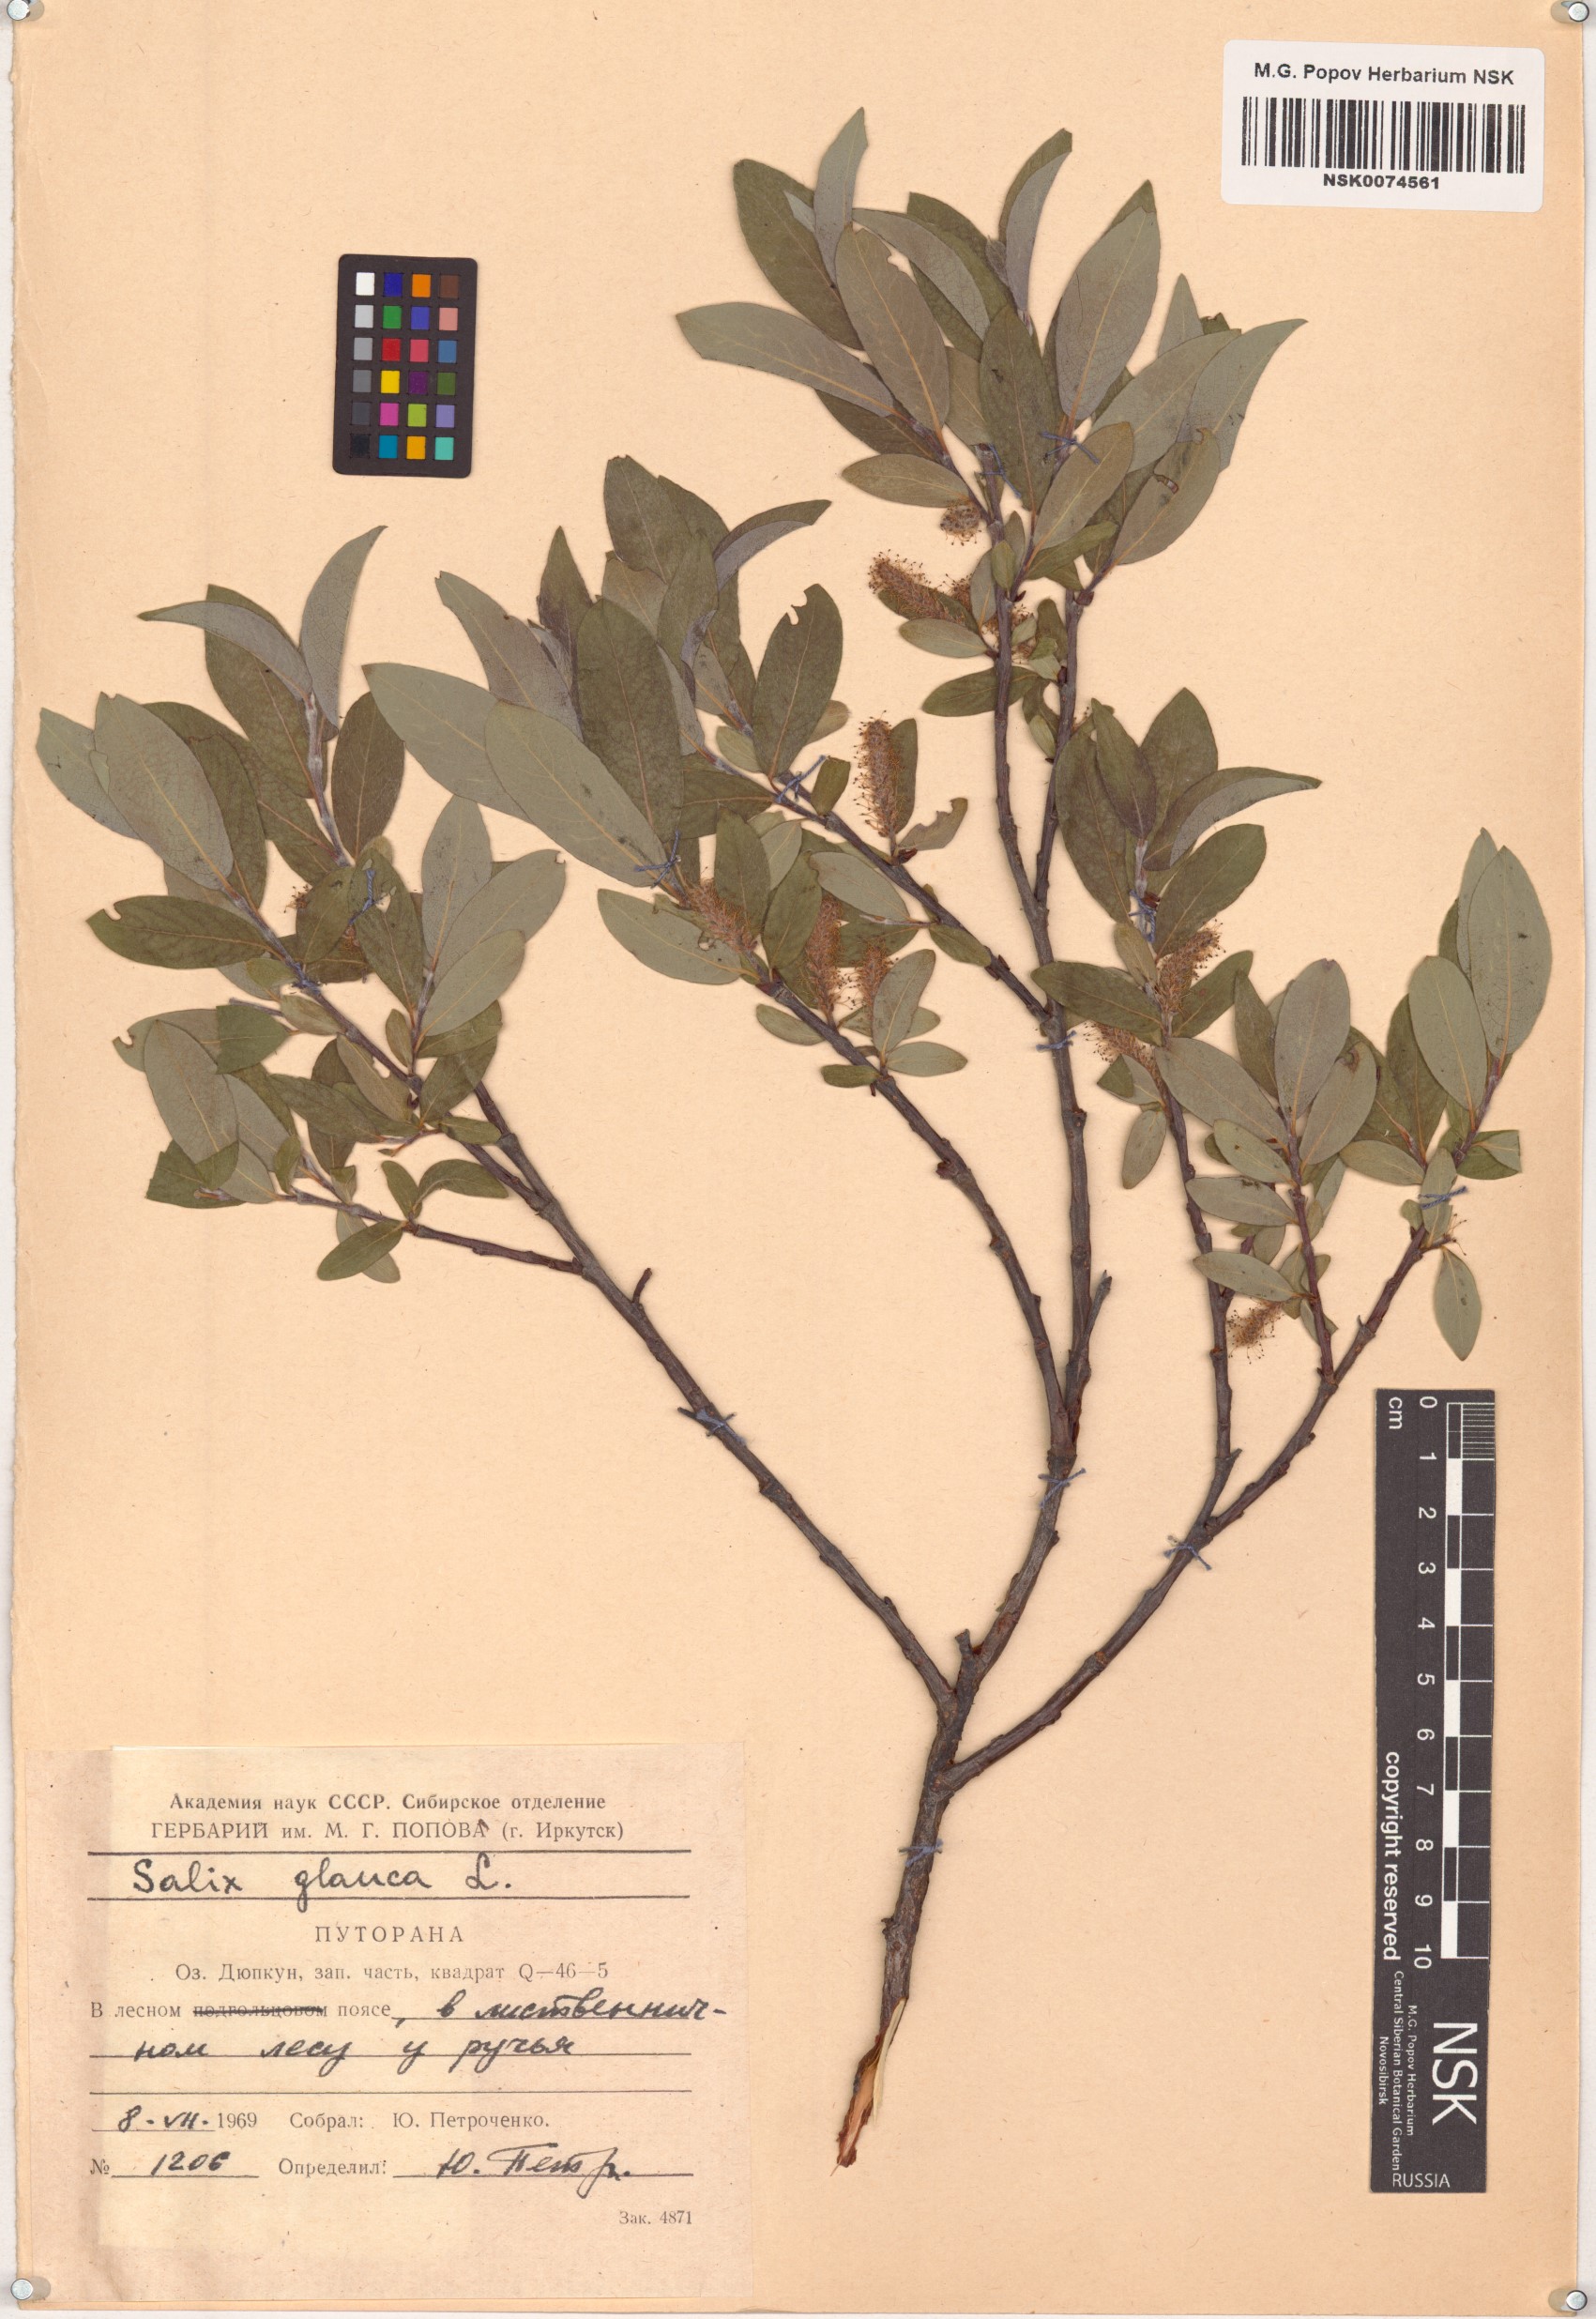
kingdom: Plantae
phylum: Tracheophyta
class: Magnoliopsida
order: Malpighiales
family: Salicaceae
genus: Salix
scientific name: Salix glauca
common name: Glaucous willow
